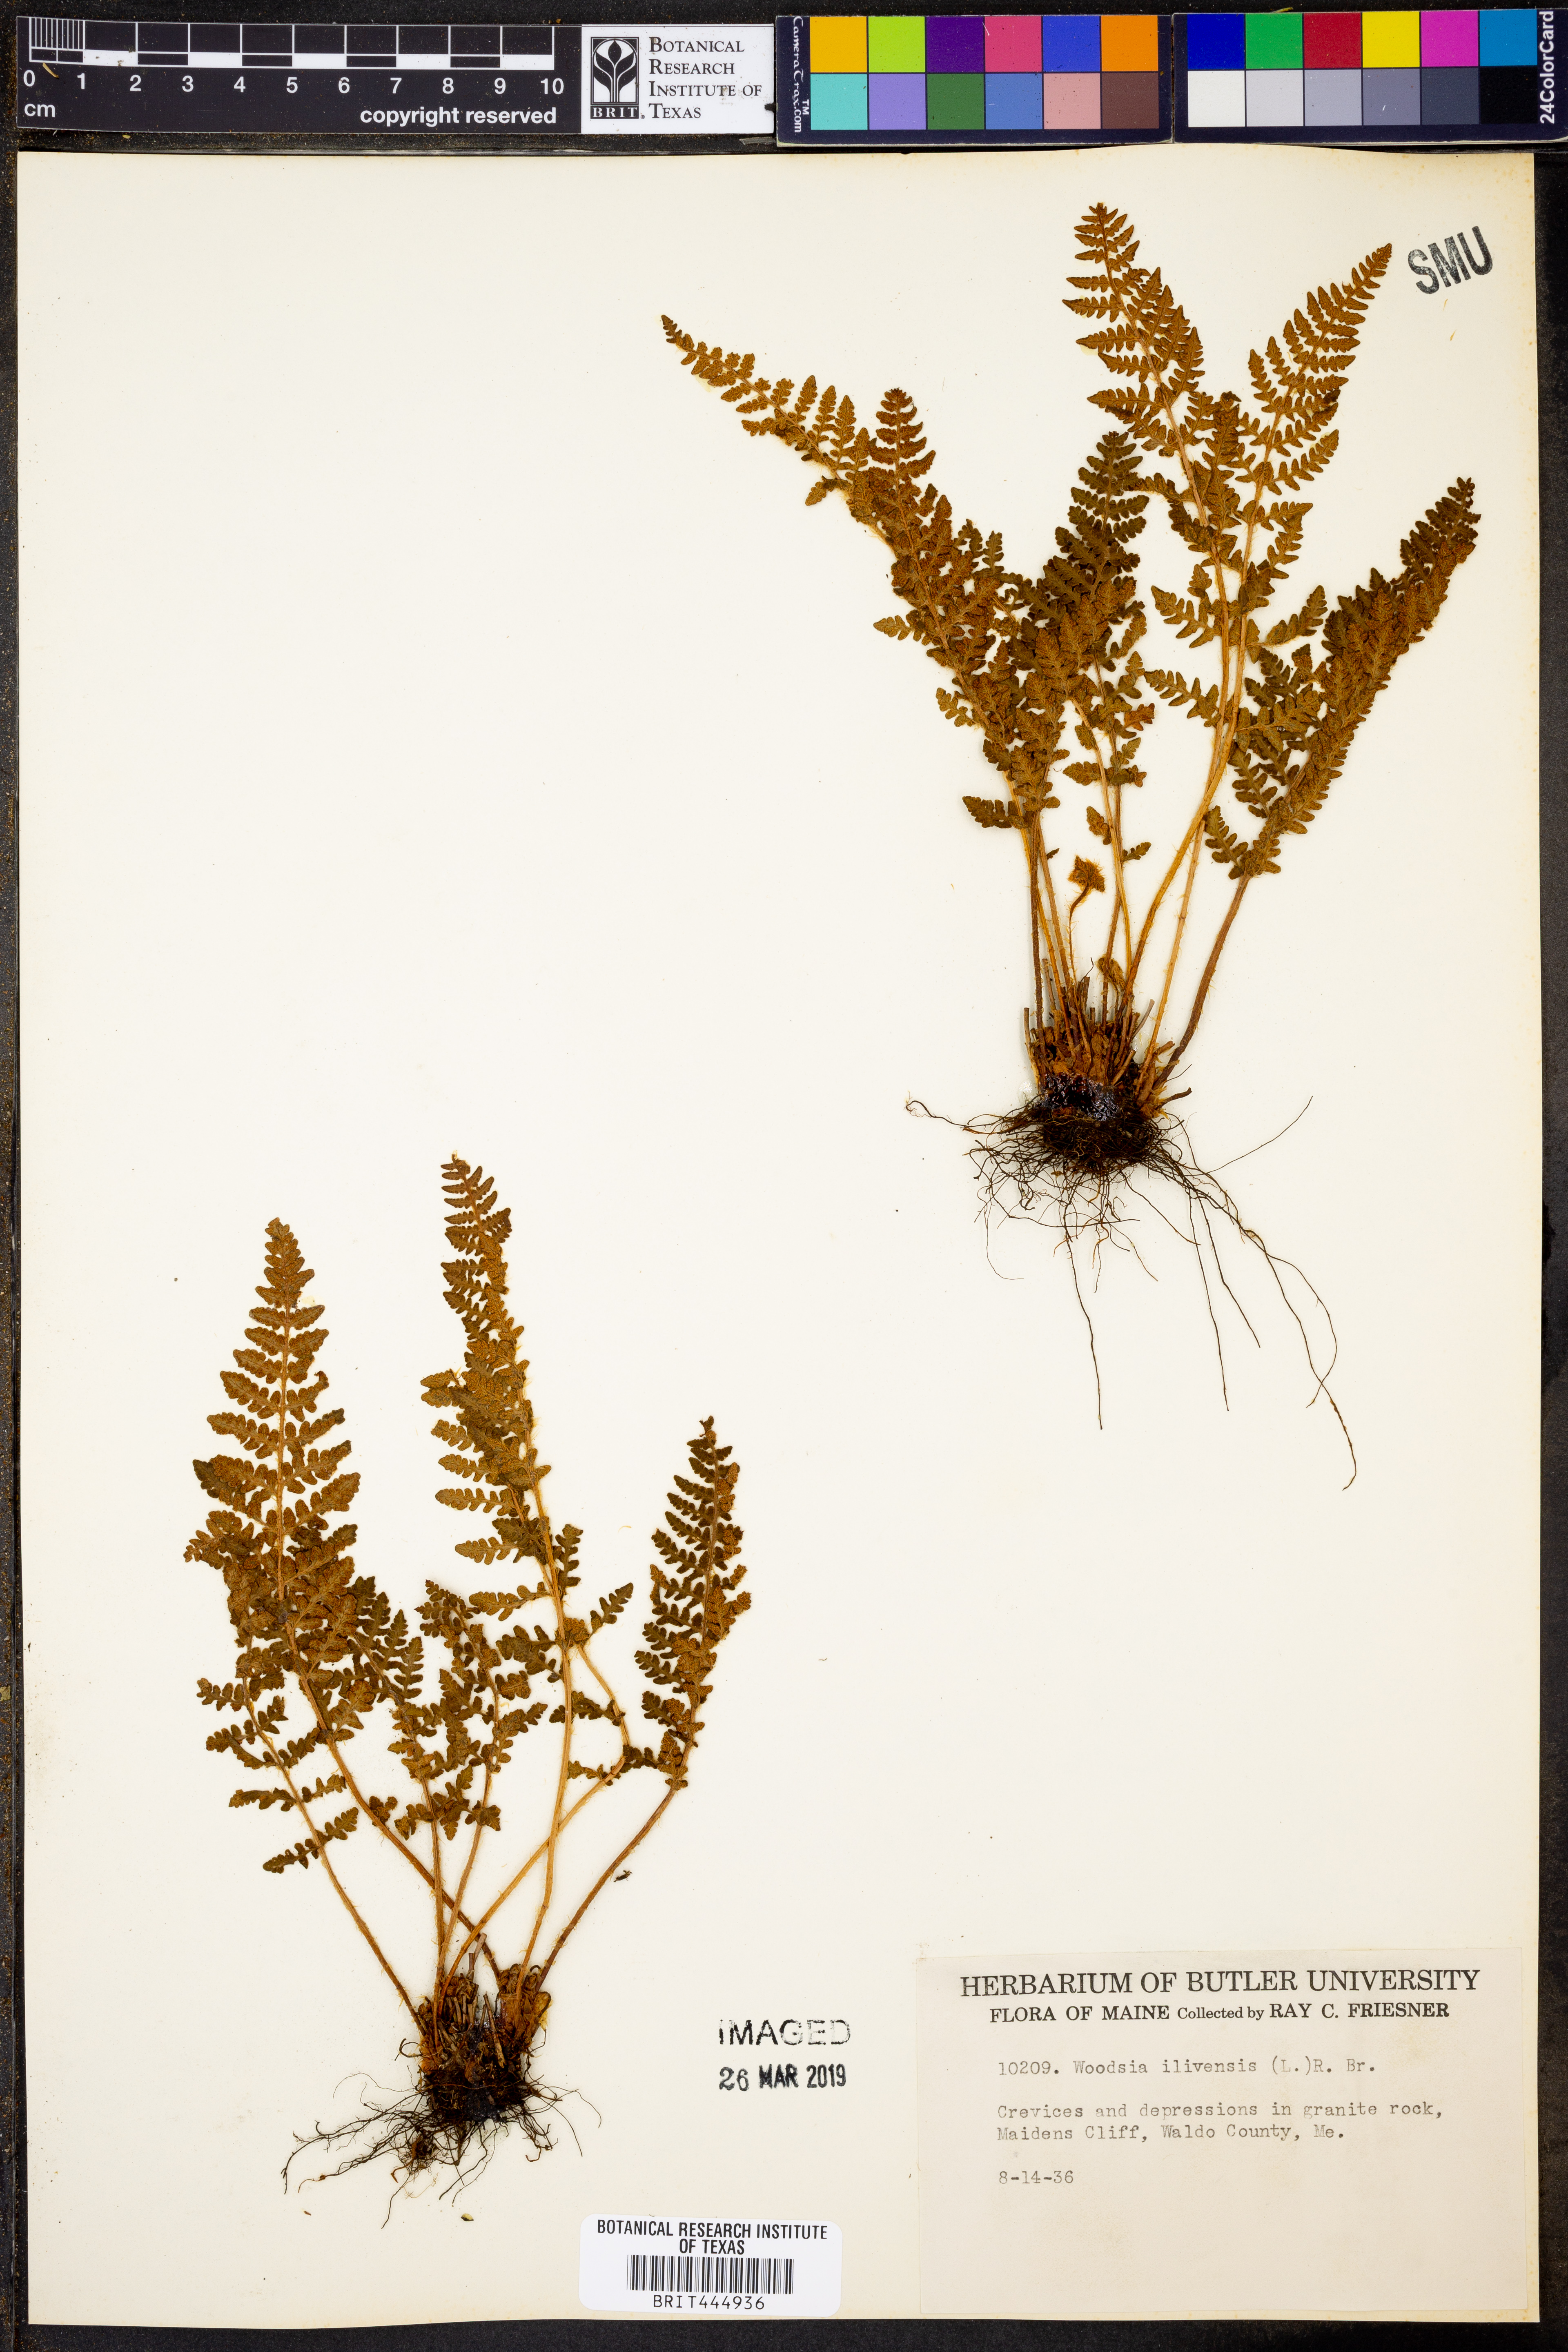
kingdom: Plantae
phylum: Tracheophyta
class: Polypodiopsida
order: Polypodiales
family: Woodsiaceae
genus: Woodsia
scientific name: Woodsia ilvensis
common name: Fragrant woodsia
